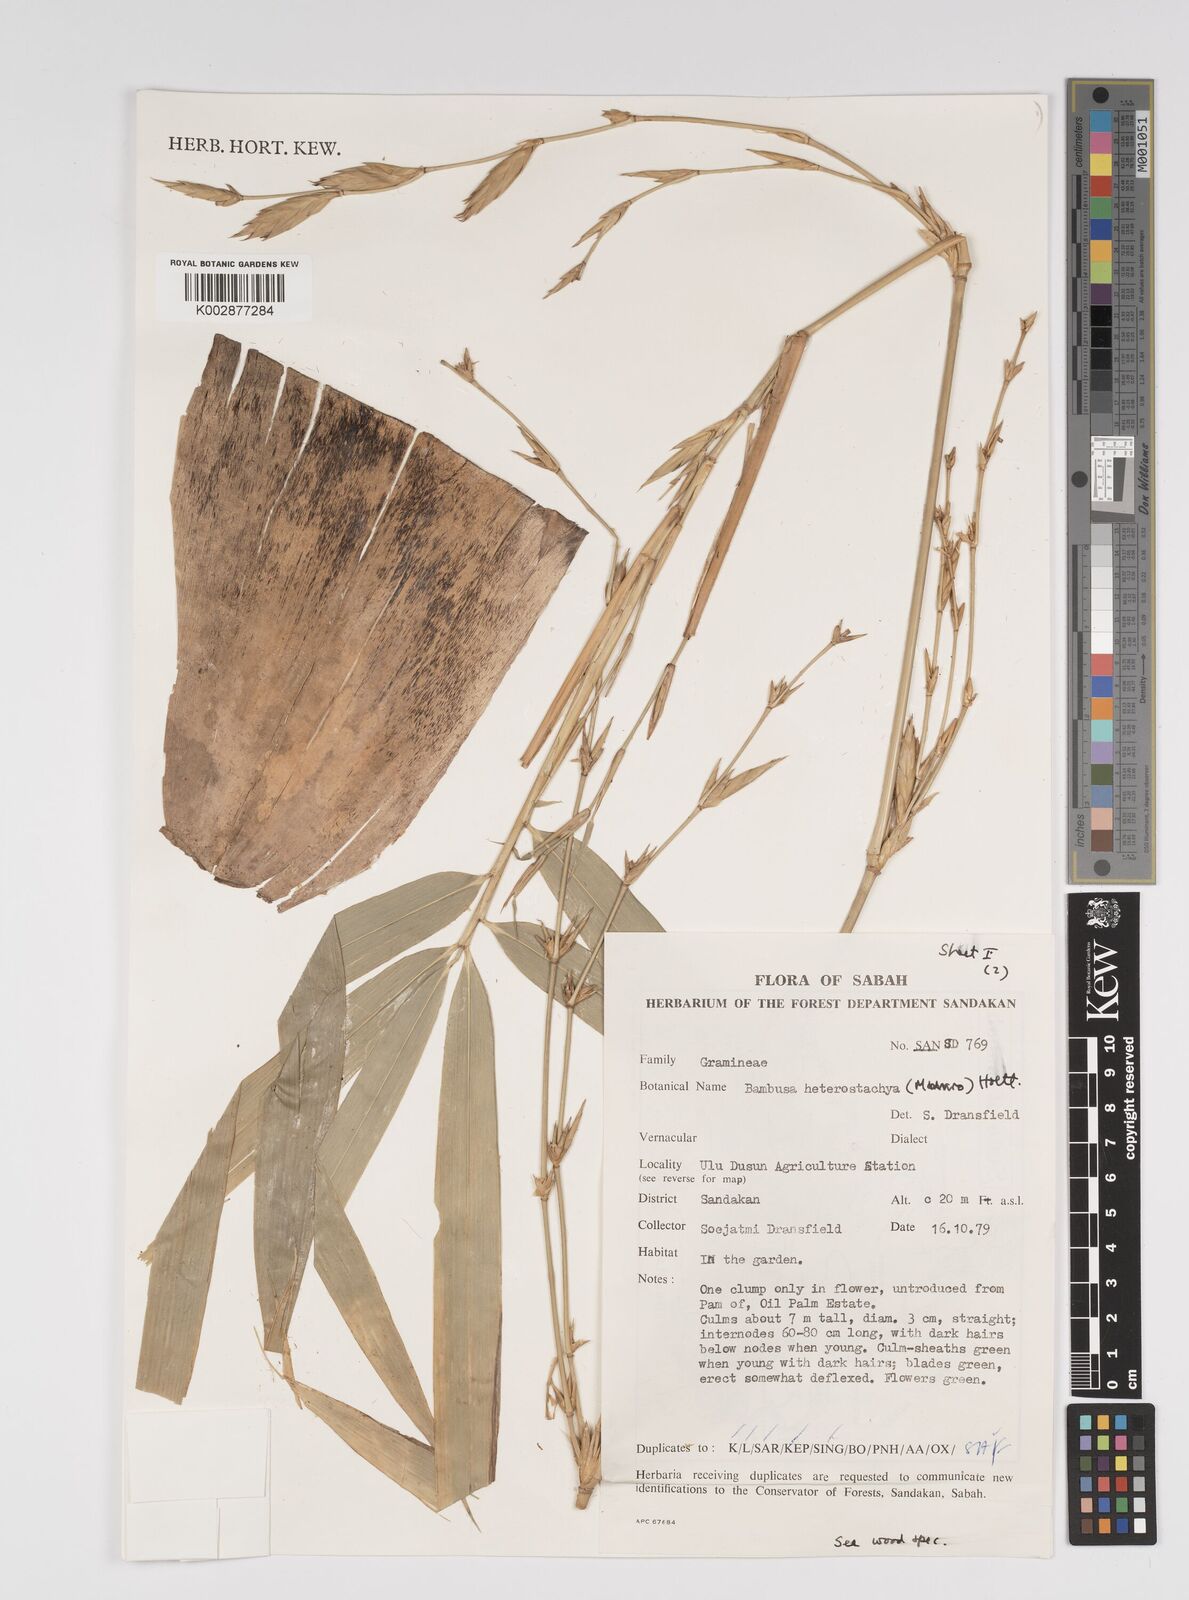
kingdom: Plantae
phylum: Tracheophyta
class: Liliopsida
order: Poales
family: Poaceae
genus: Bambusa
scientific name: Bambusa heterostachya
